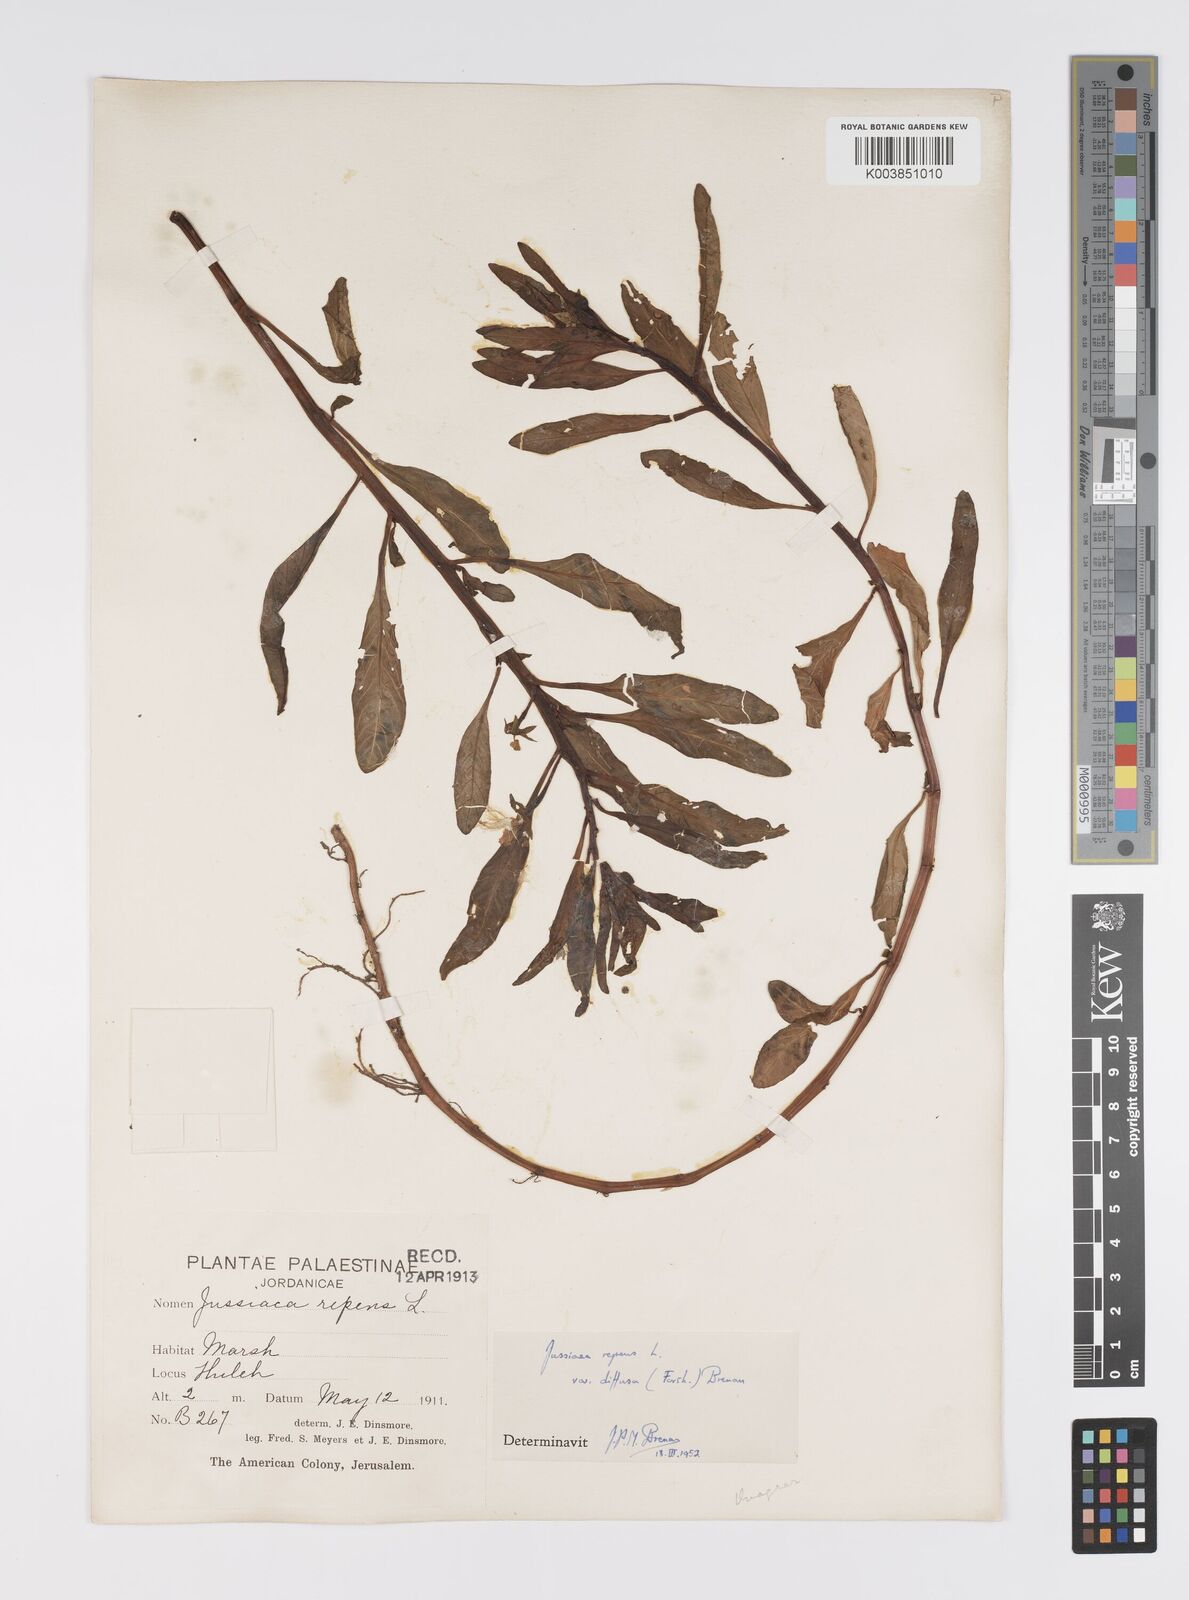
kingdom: Plantae
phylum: Tracheophyta
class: Magnoliopsida
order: Myrtales
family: Onagraceae
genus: Ludwigia
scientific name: Ludwigia adscendens
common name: Creeping water primrose
